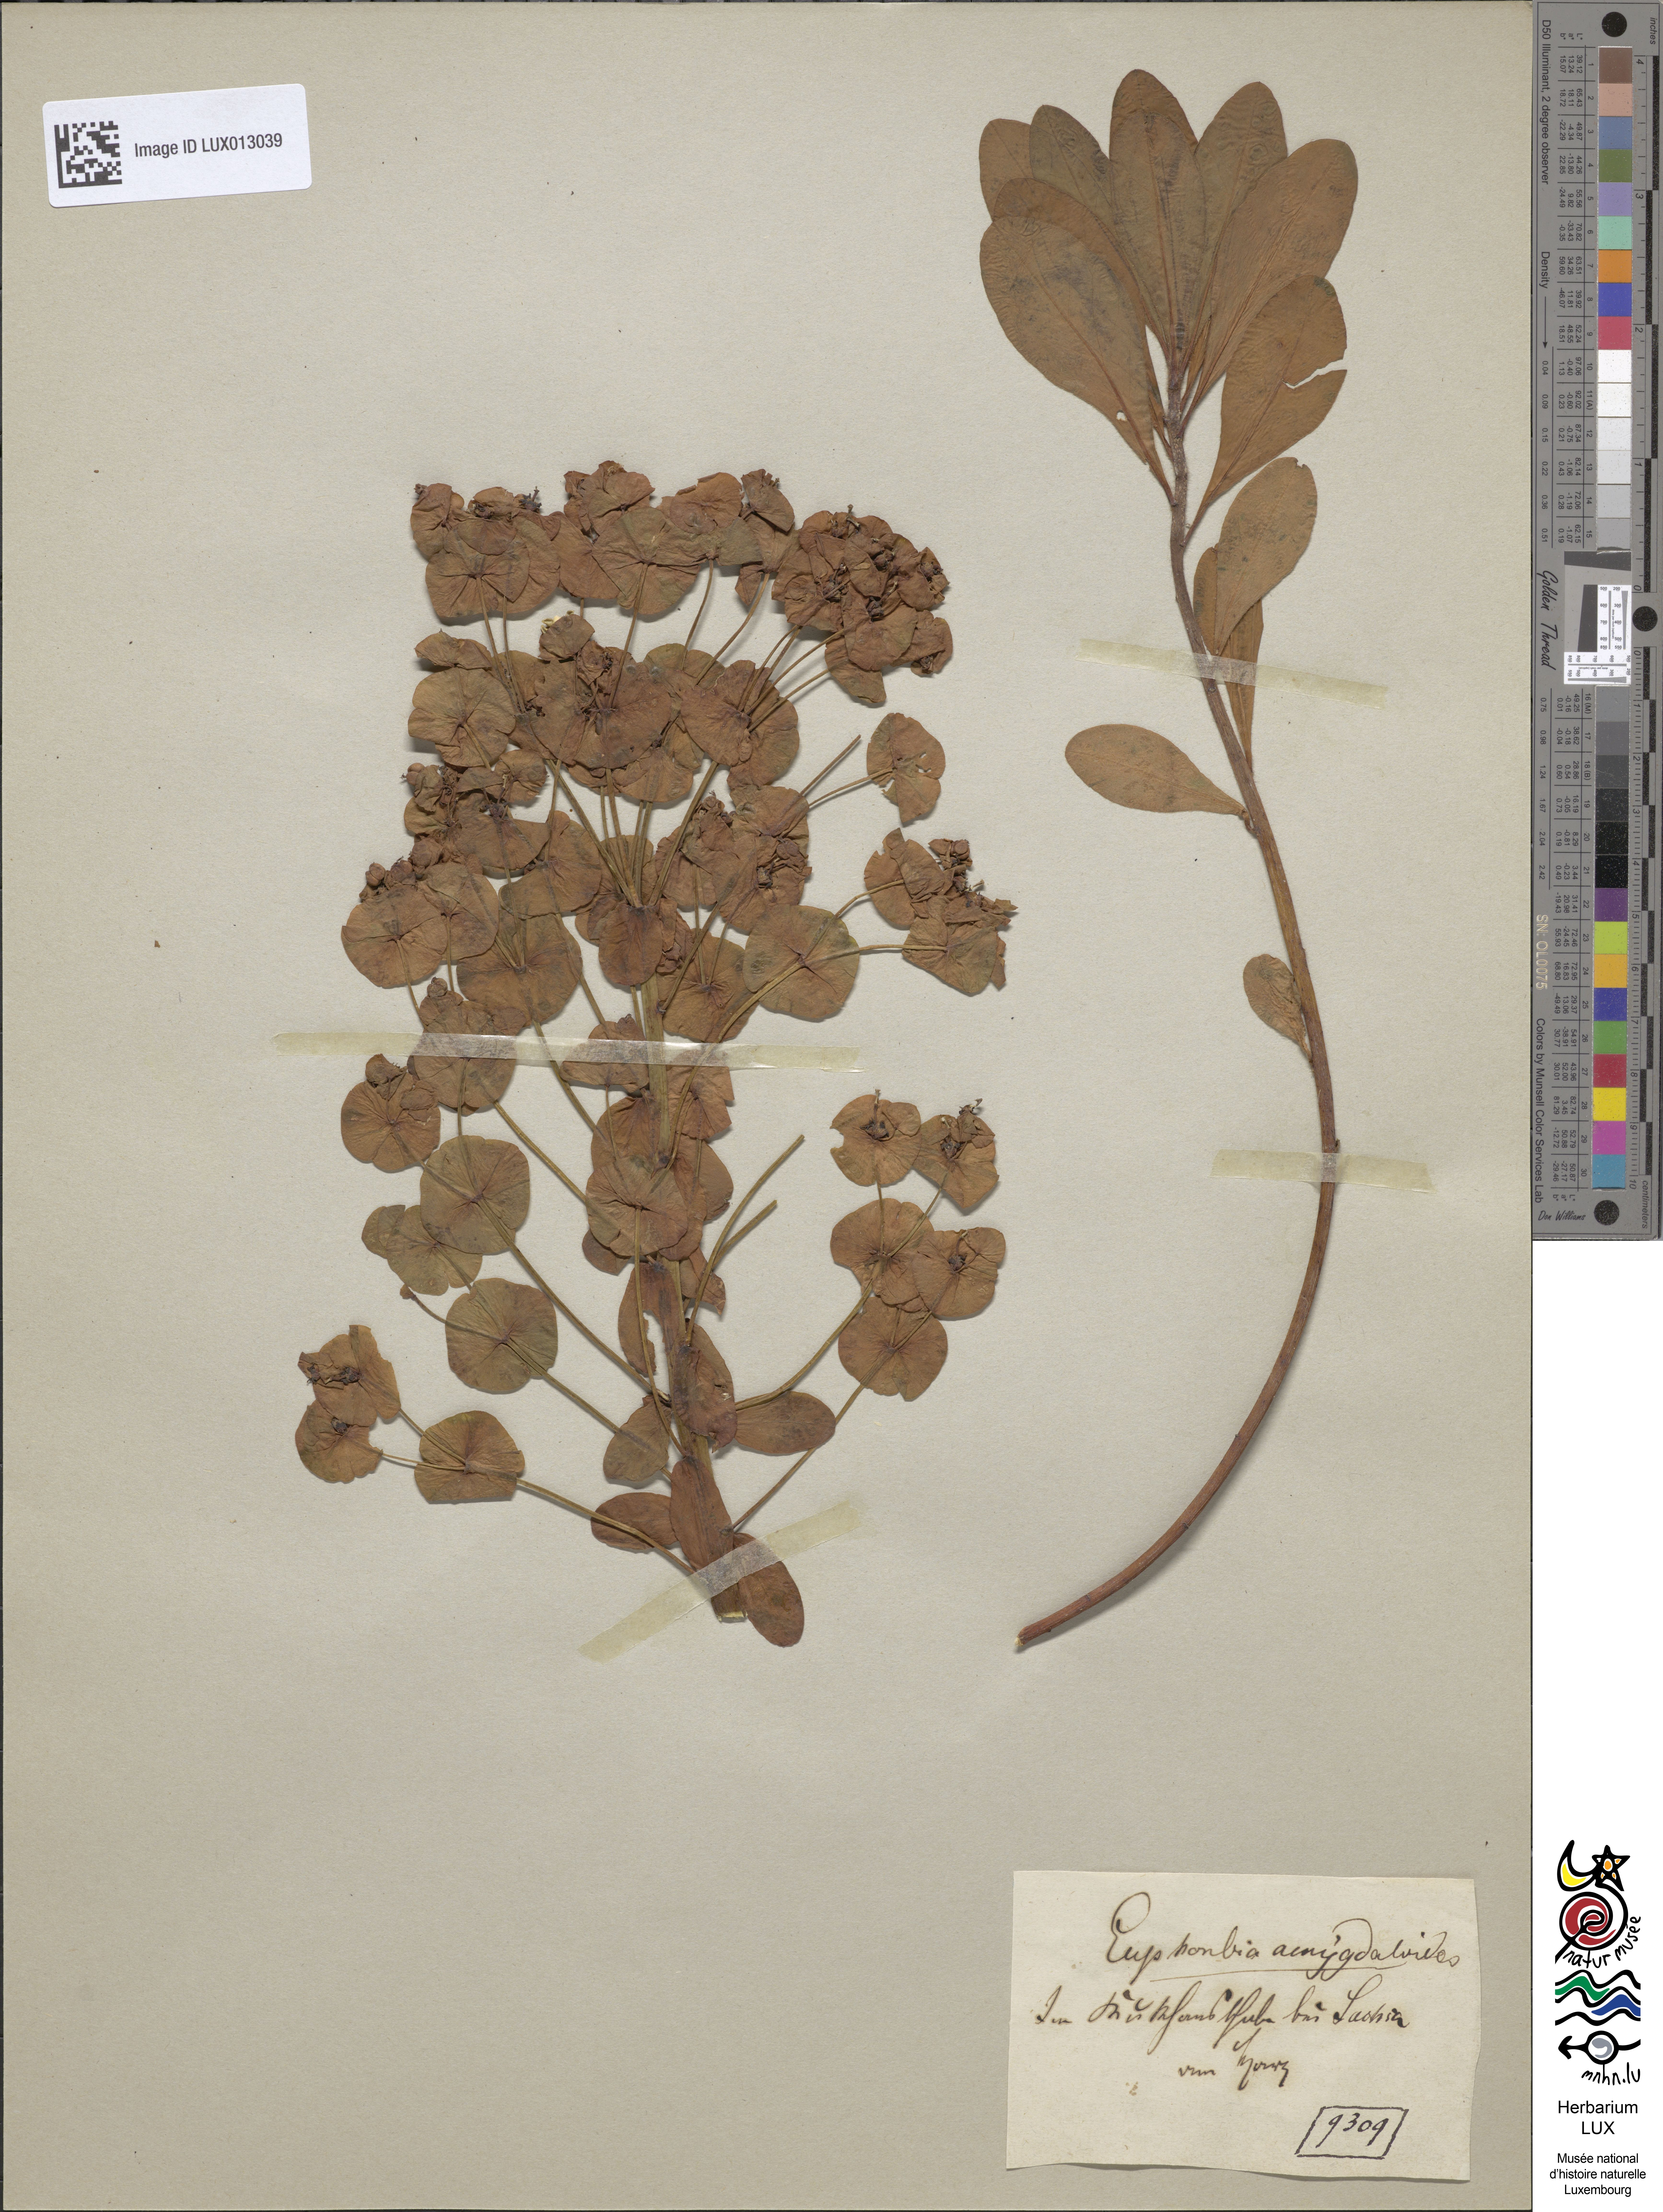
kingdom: Plantae
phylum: Tracheophyta
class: Magnoliopsida
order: Malpighiales
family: Euphorbiaceae
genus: Euphorbia
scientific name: Euphorbia amygdaloides
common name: Wood spurge
